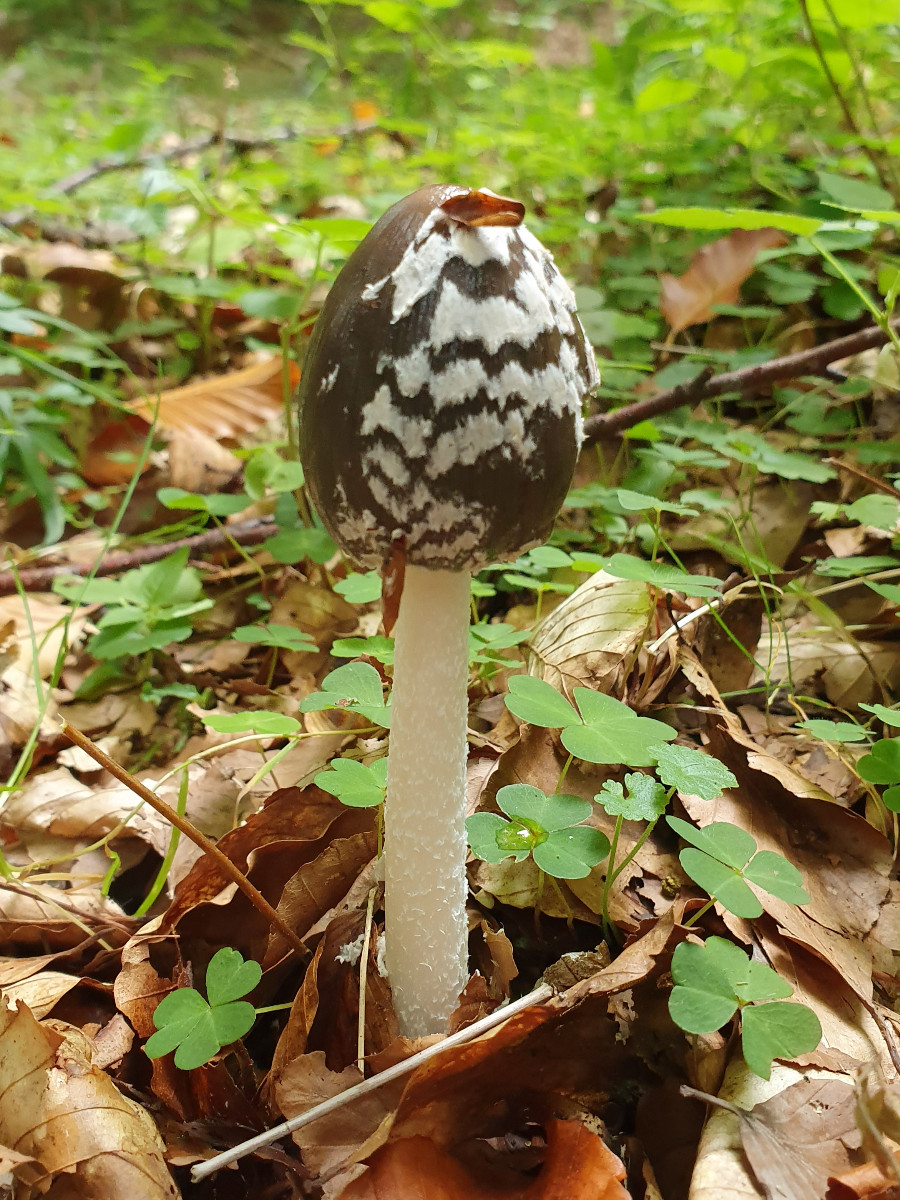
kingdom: Fungi
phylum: Basidiomycota
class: Agaricomycetes
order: Agaricales
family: Psathyrellaceae
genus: Coprinopsis
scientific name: Coprinopsis picacea
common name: skade-blækhat
